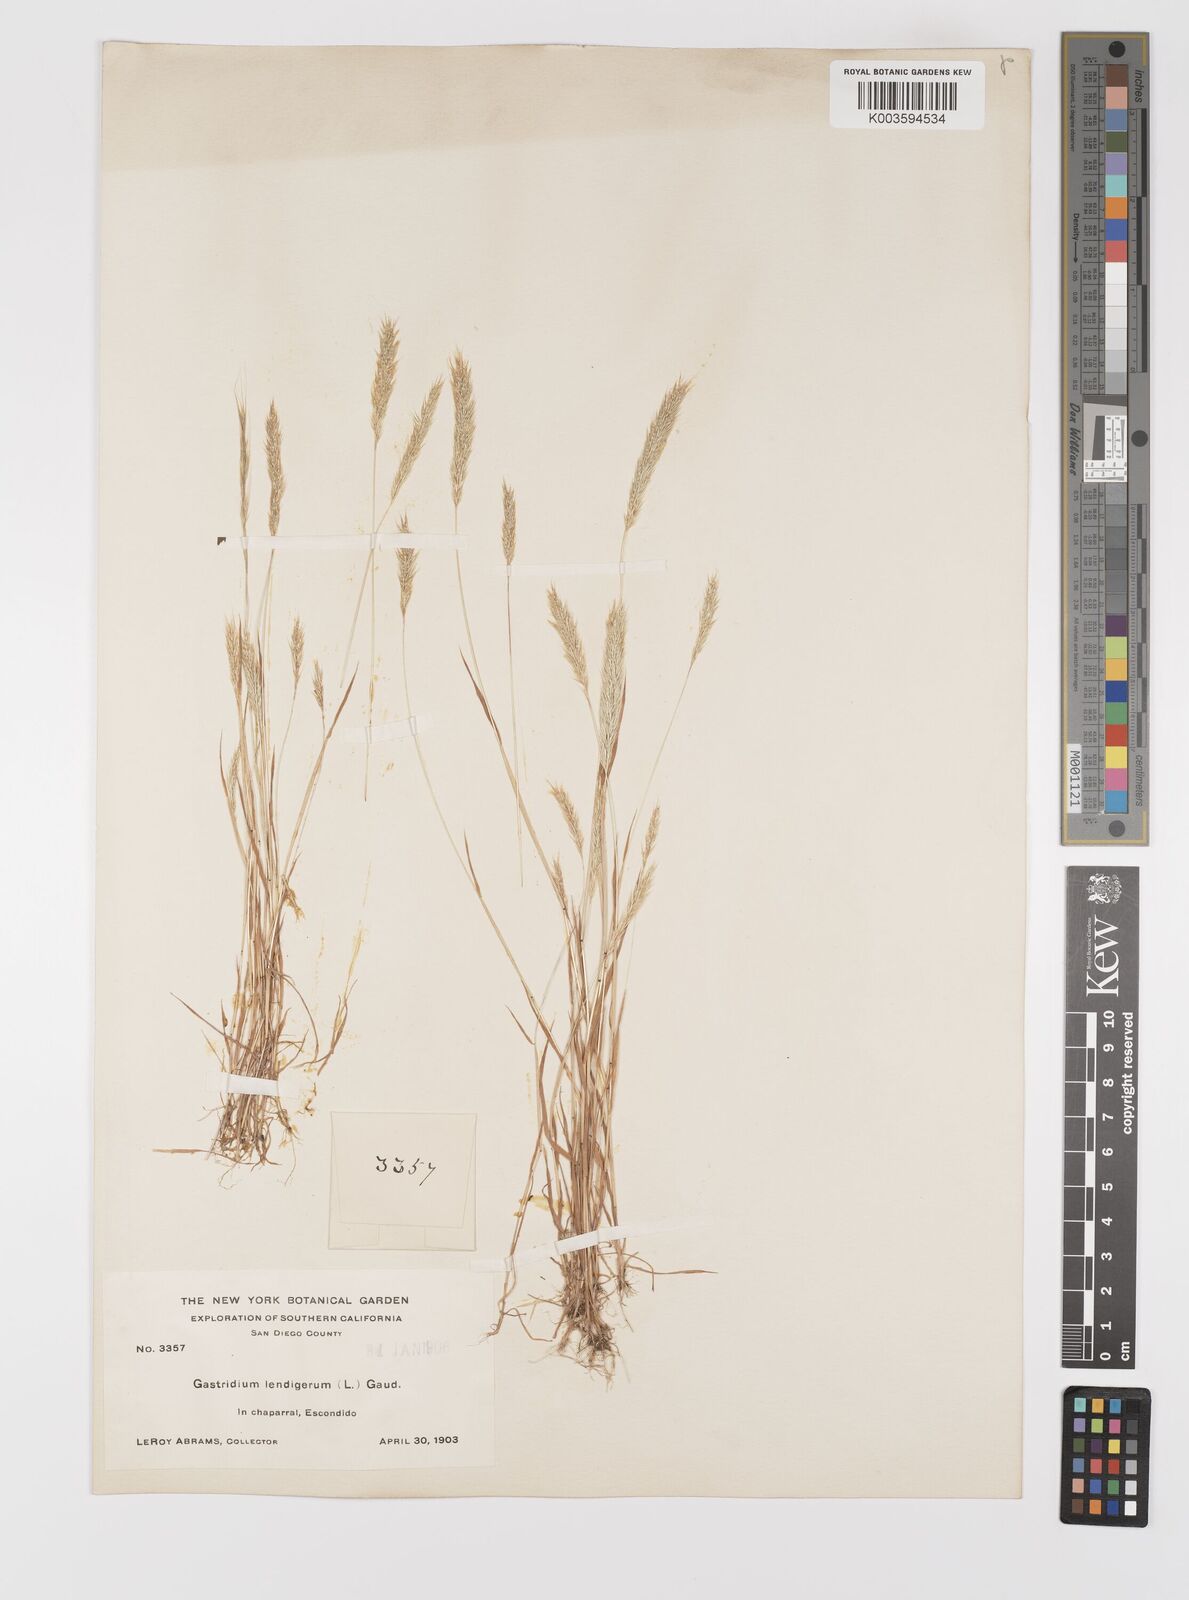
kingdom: Plantae
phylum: Tracheophyta
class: Liliopsida
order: Poales
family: Poaceae
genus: Gastridium
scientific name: Gastridium phleoides
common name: Nit grass
